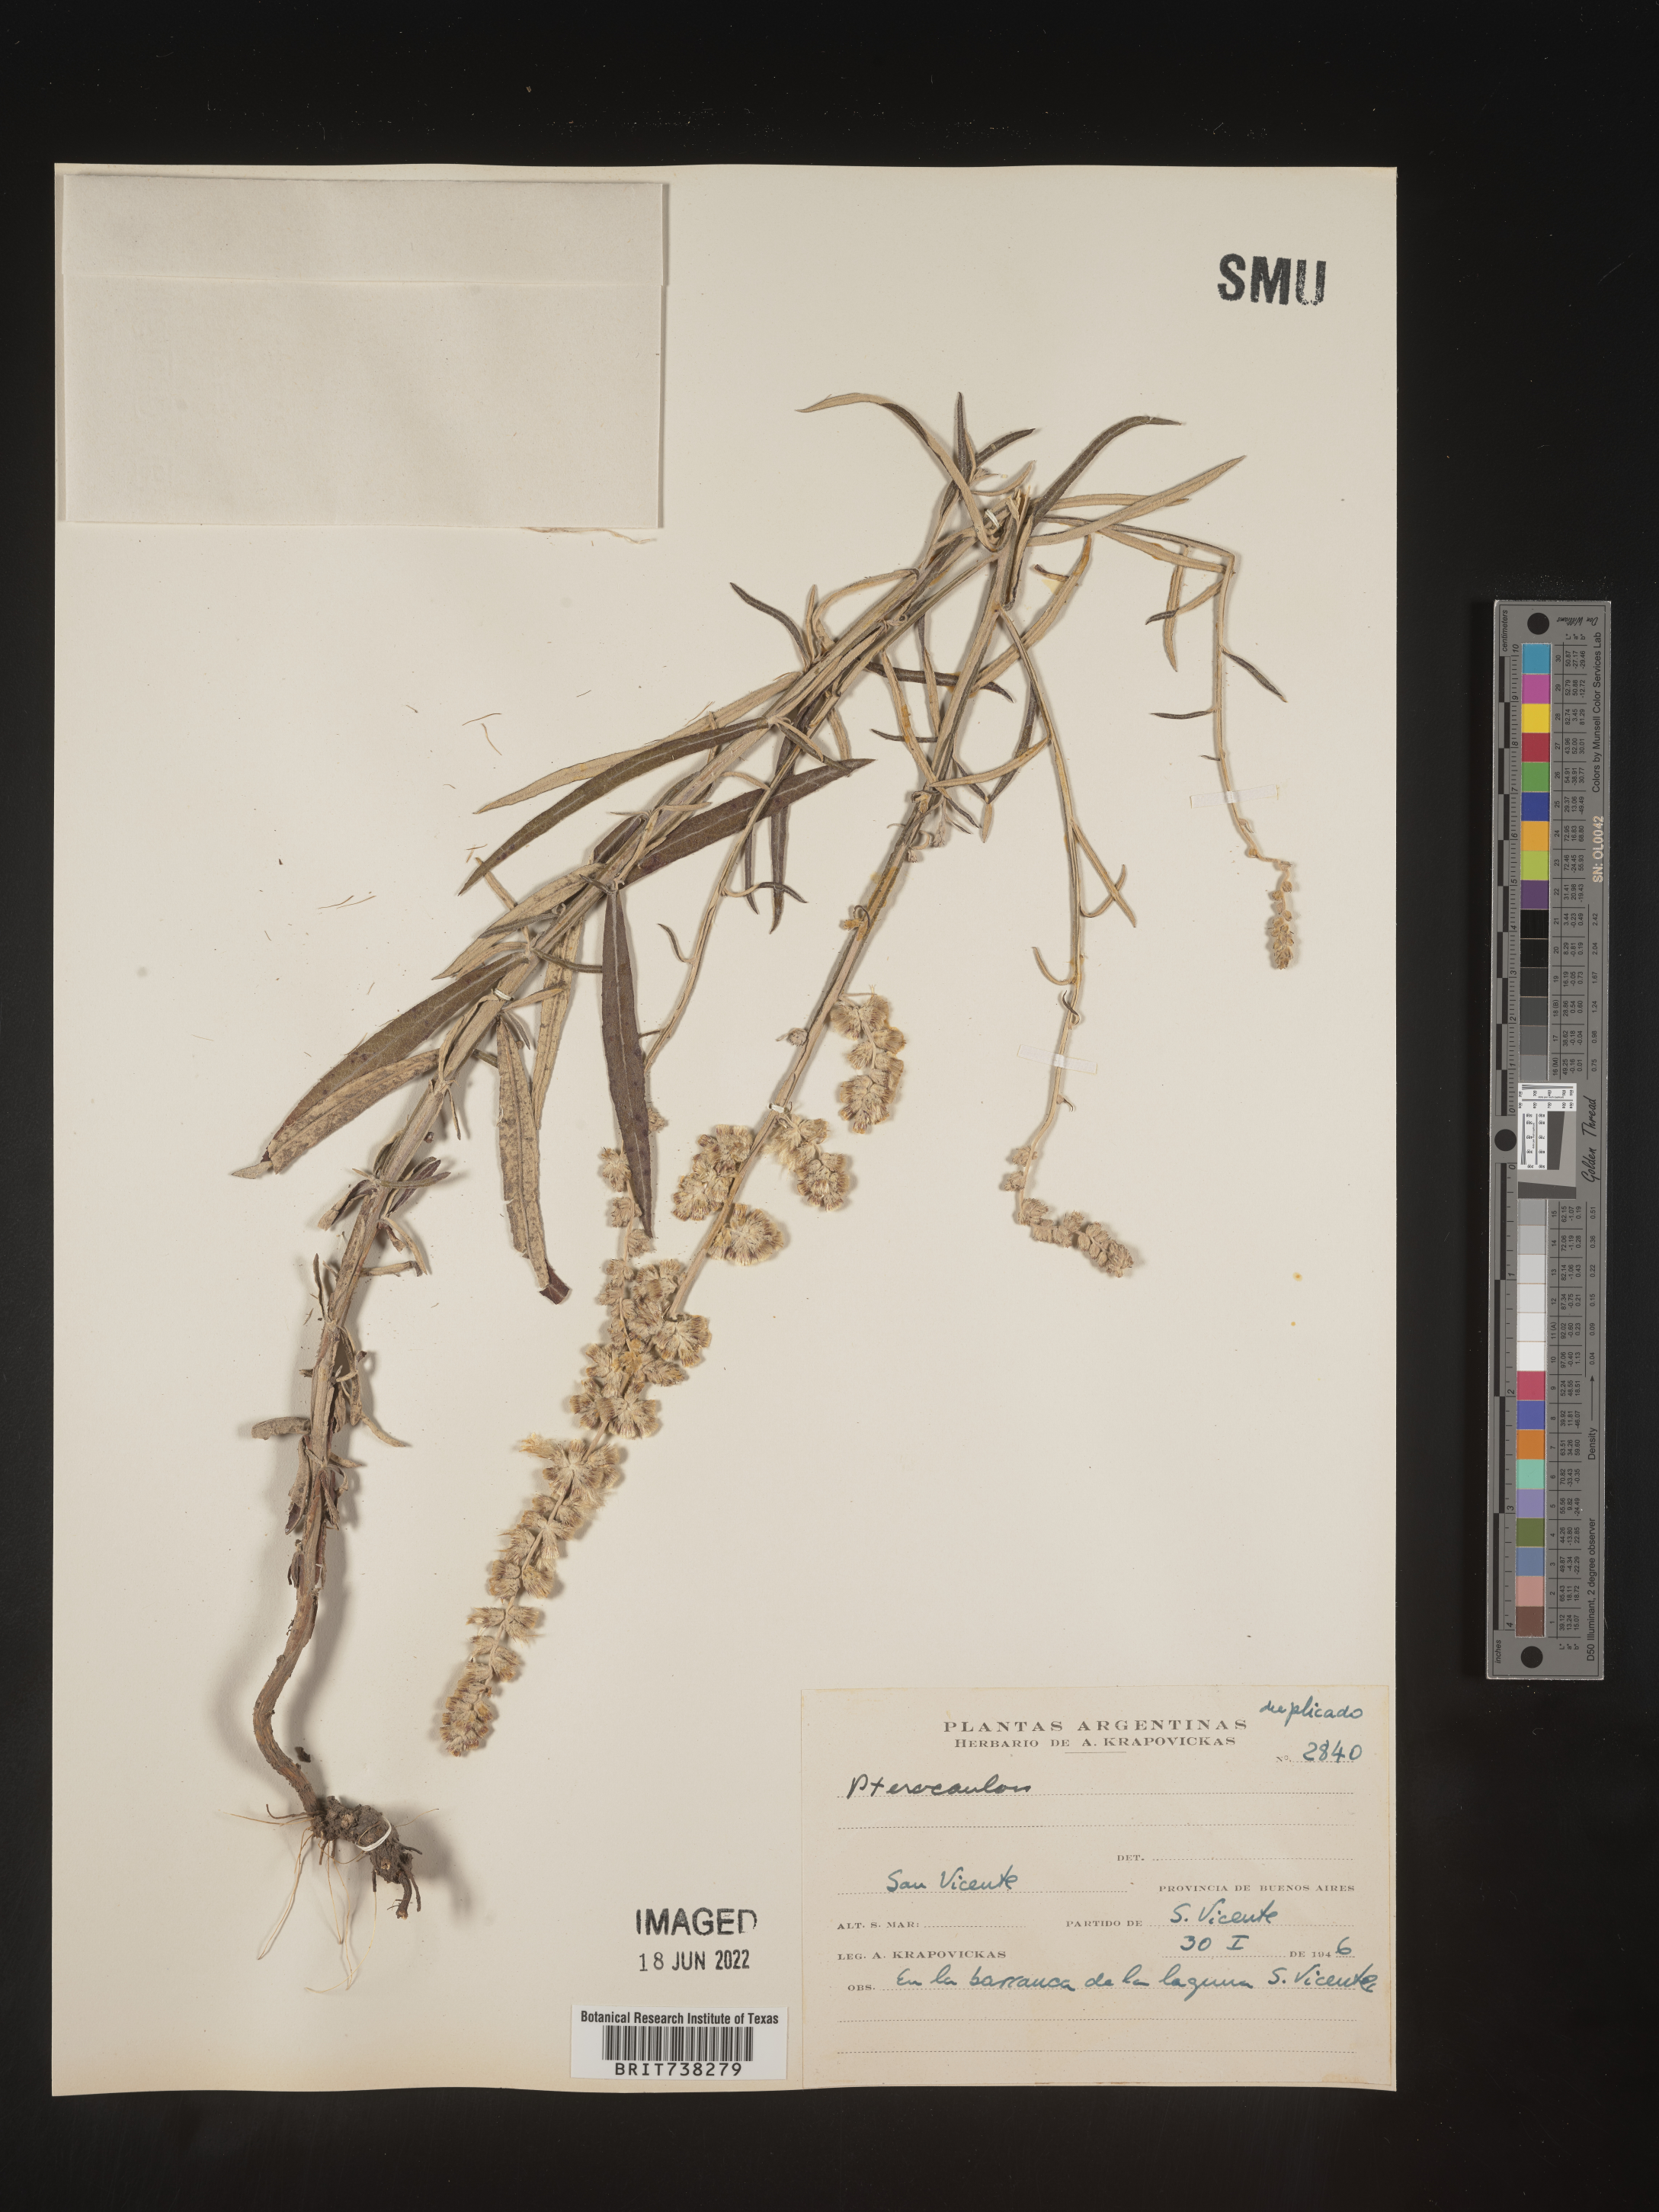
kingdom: Plantae
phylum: Tracheophyta
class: Magnoliopsida
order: Asterales
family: Asteraceae
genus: Pterocaulon
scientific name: Pterocaulon
